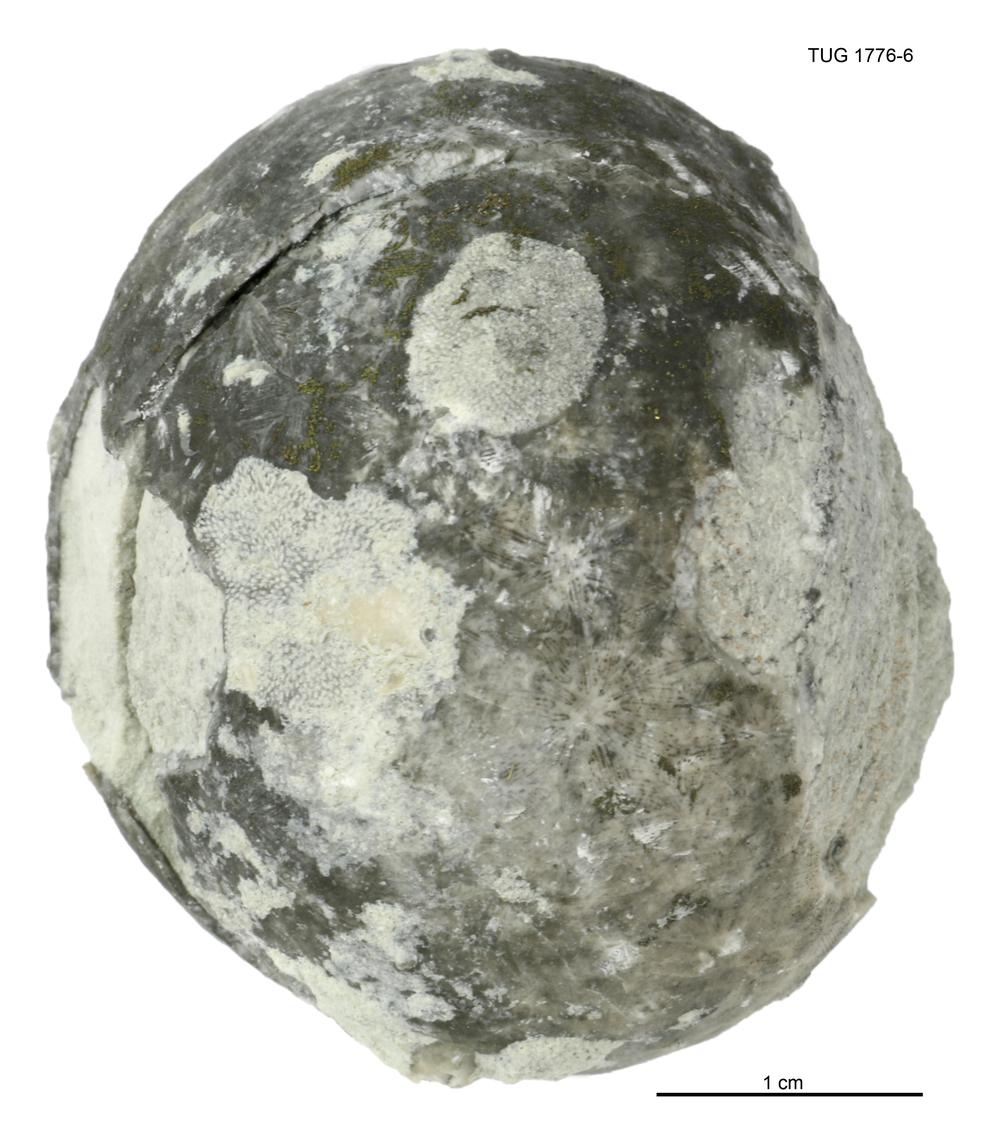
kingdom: Animalia
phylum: Echinodermata
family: Echinosphaeritidae
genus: Echinosphaerites
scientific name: Echinosphaerites
